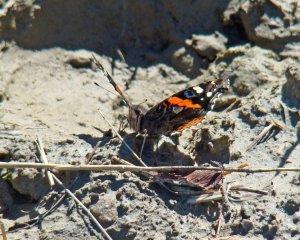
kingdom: Animalia
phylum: Arthropoda
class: Insecta
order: Lepidoptera
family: Nymphalidae
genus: Vanessa
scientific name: Vanessa atalanta
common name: Red Admiral
